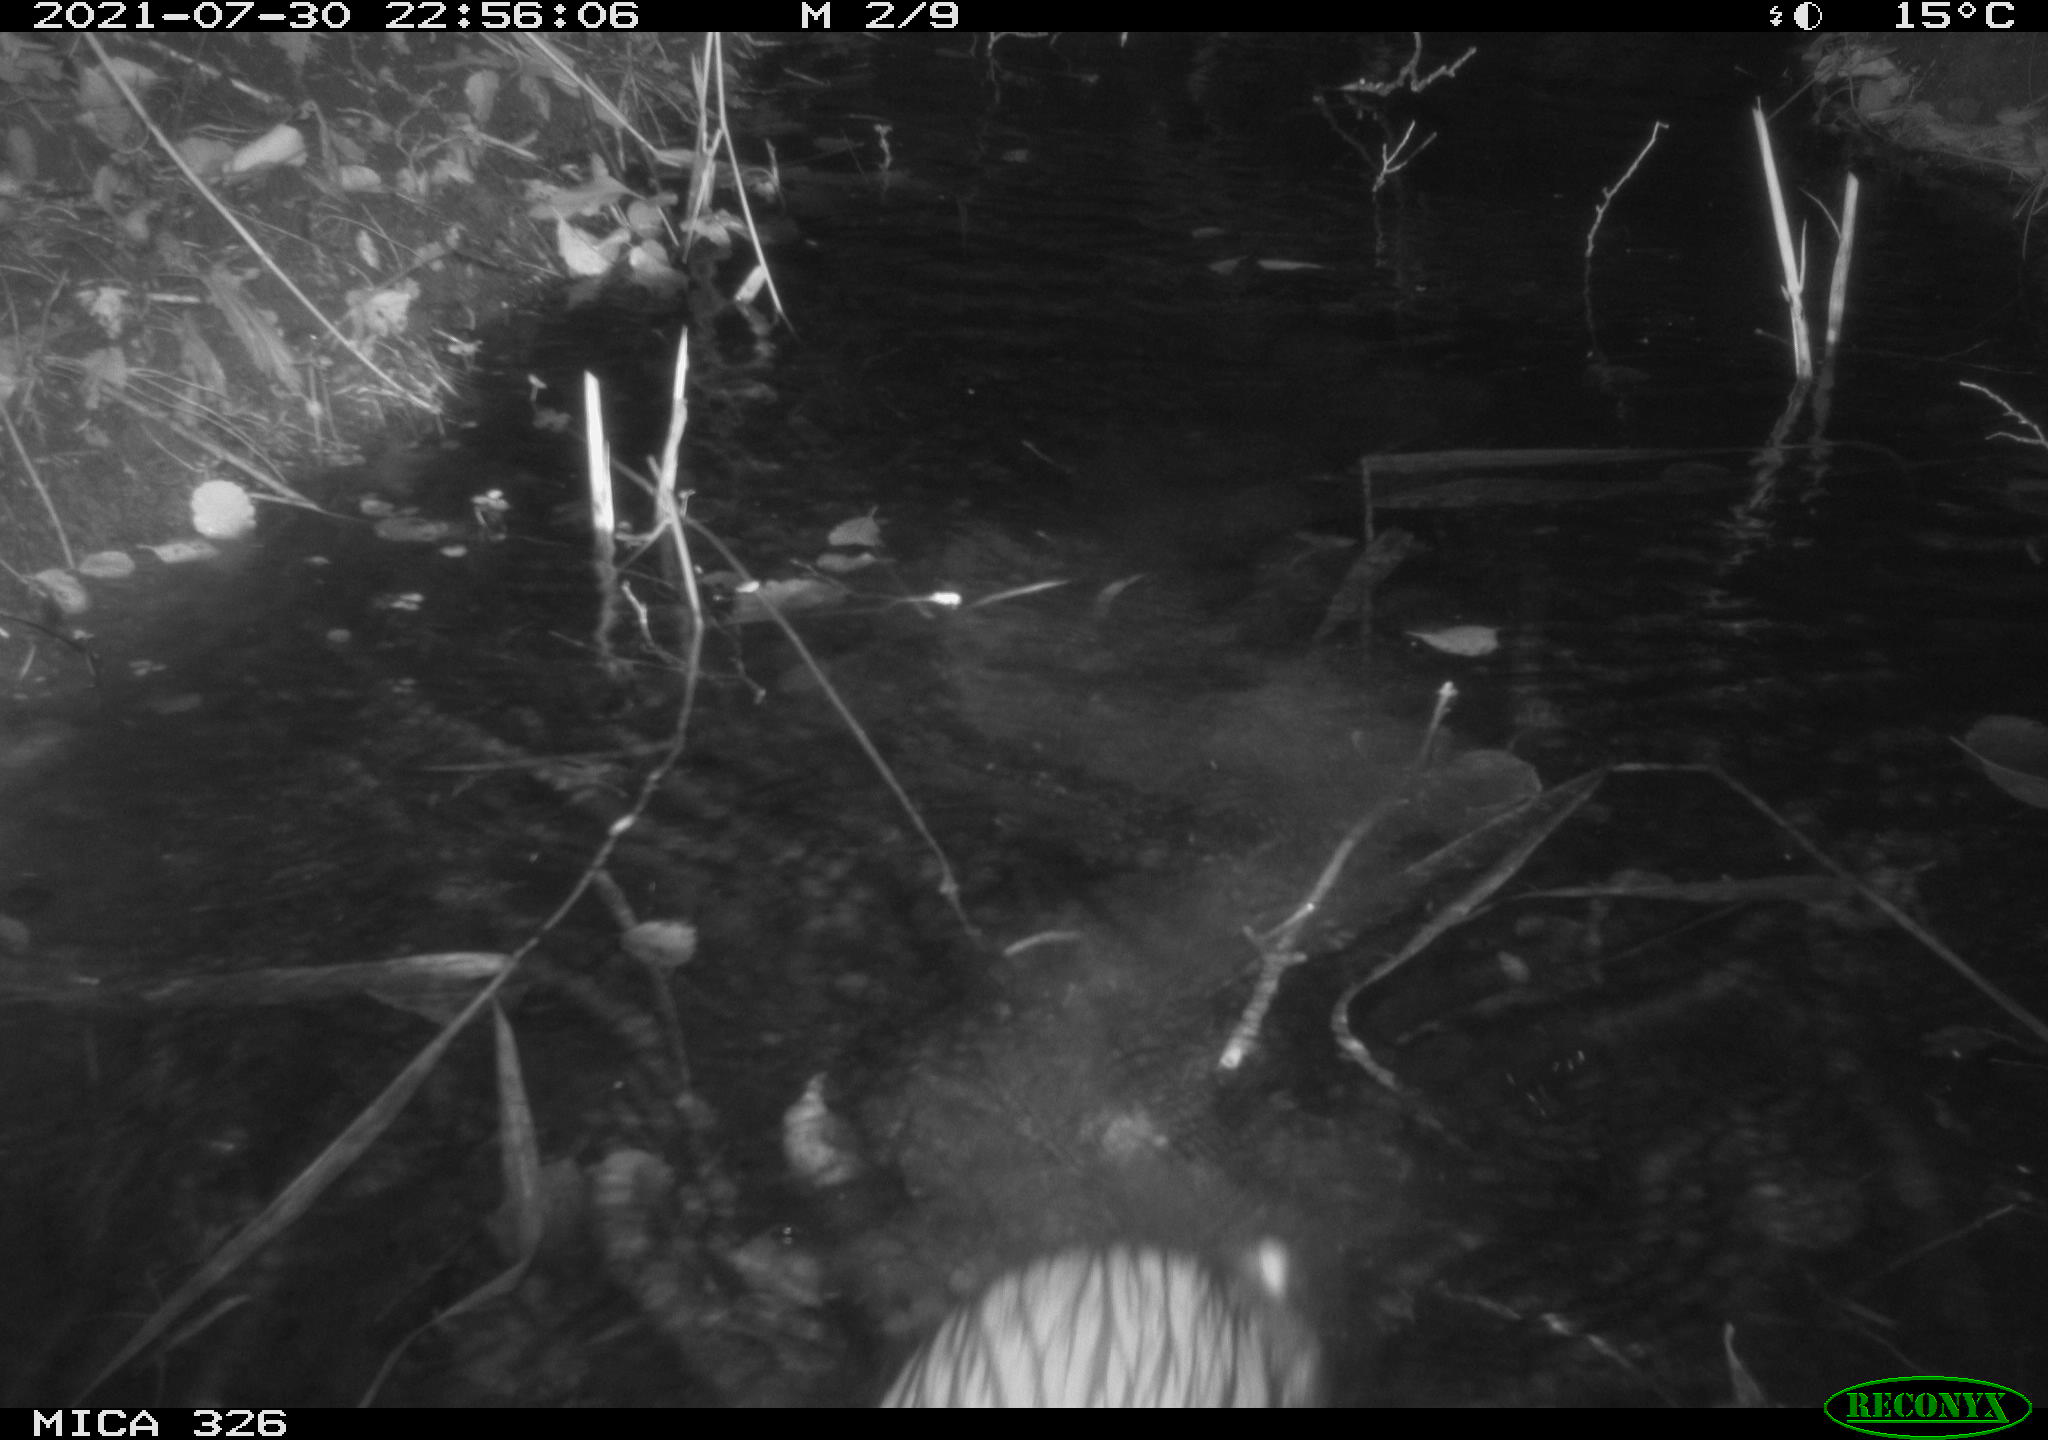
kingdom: Animalia
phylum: Chordata
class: Mammalia
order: Rodentia
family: Myocastoridae
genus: Myocastor
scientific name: Myocastor coypus
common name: Coypu
